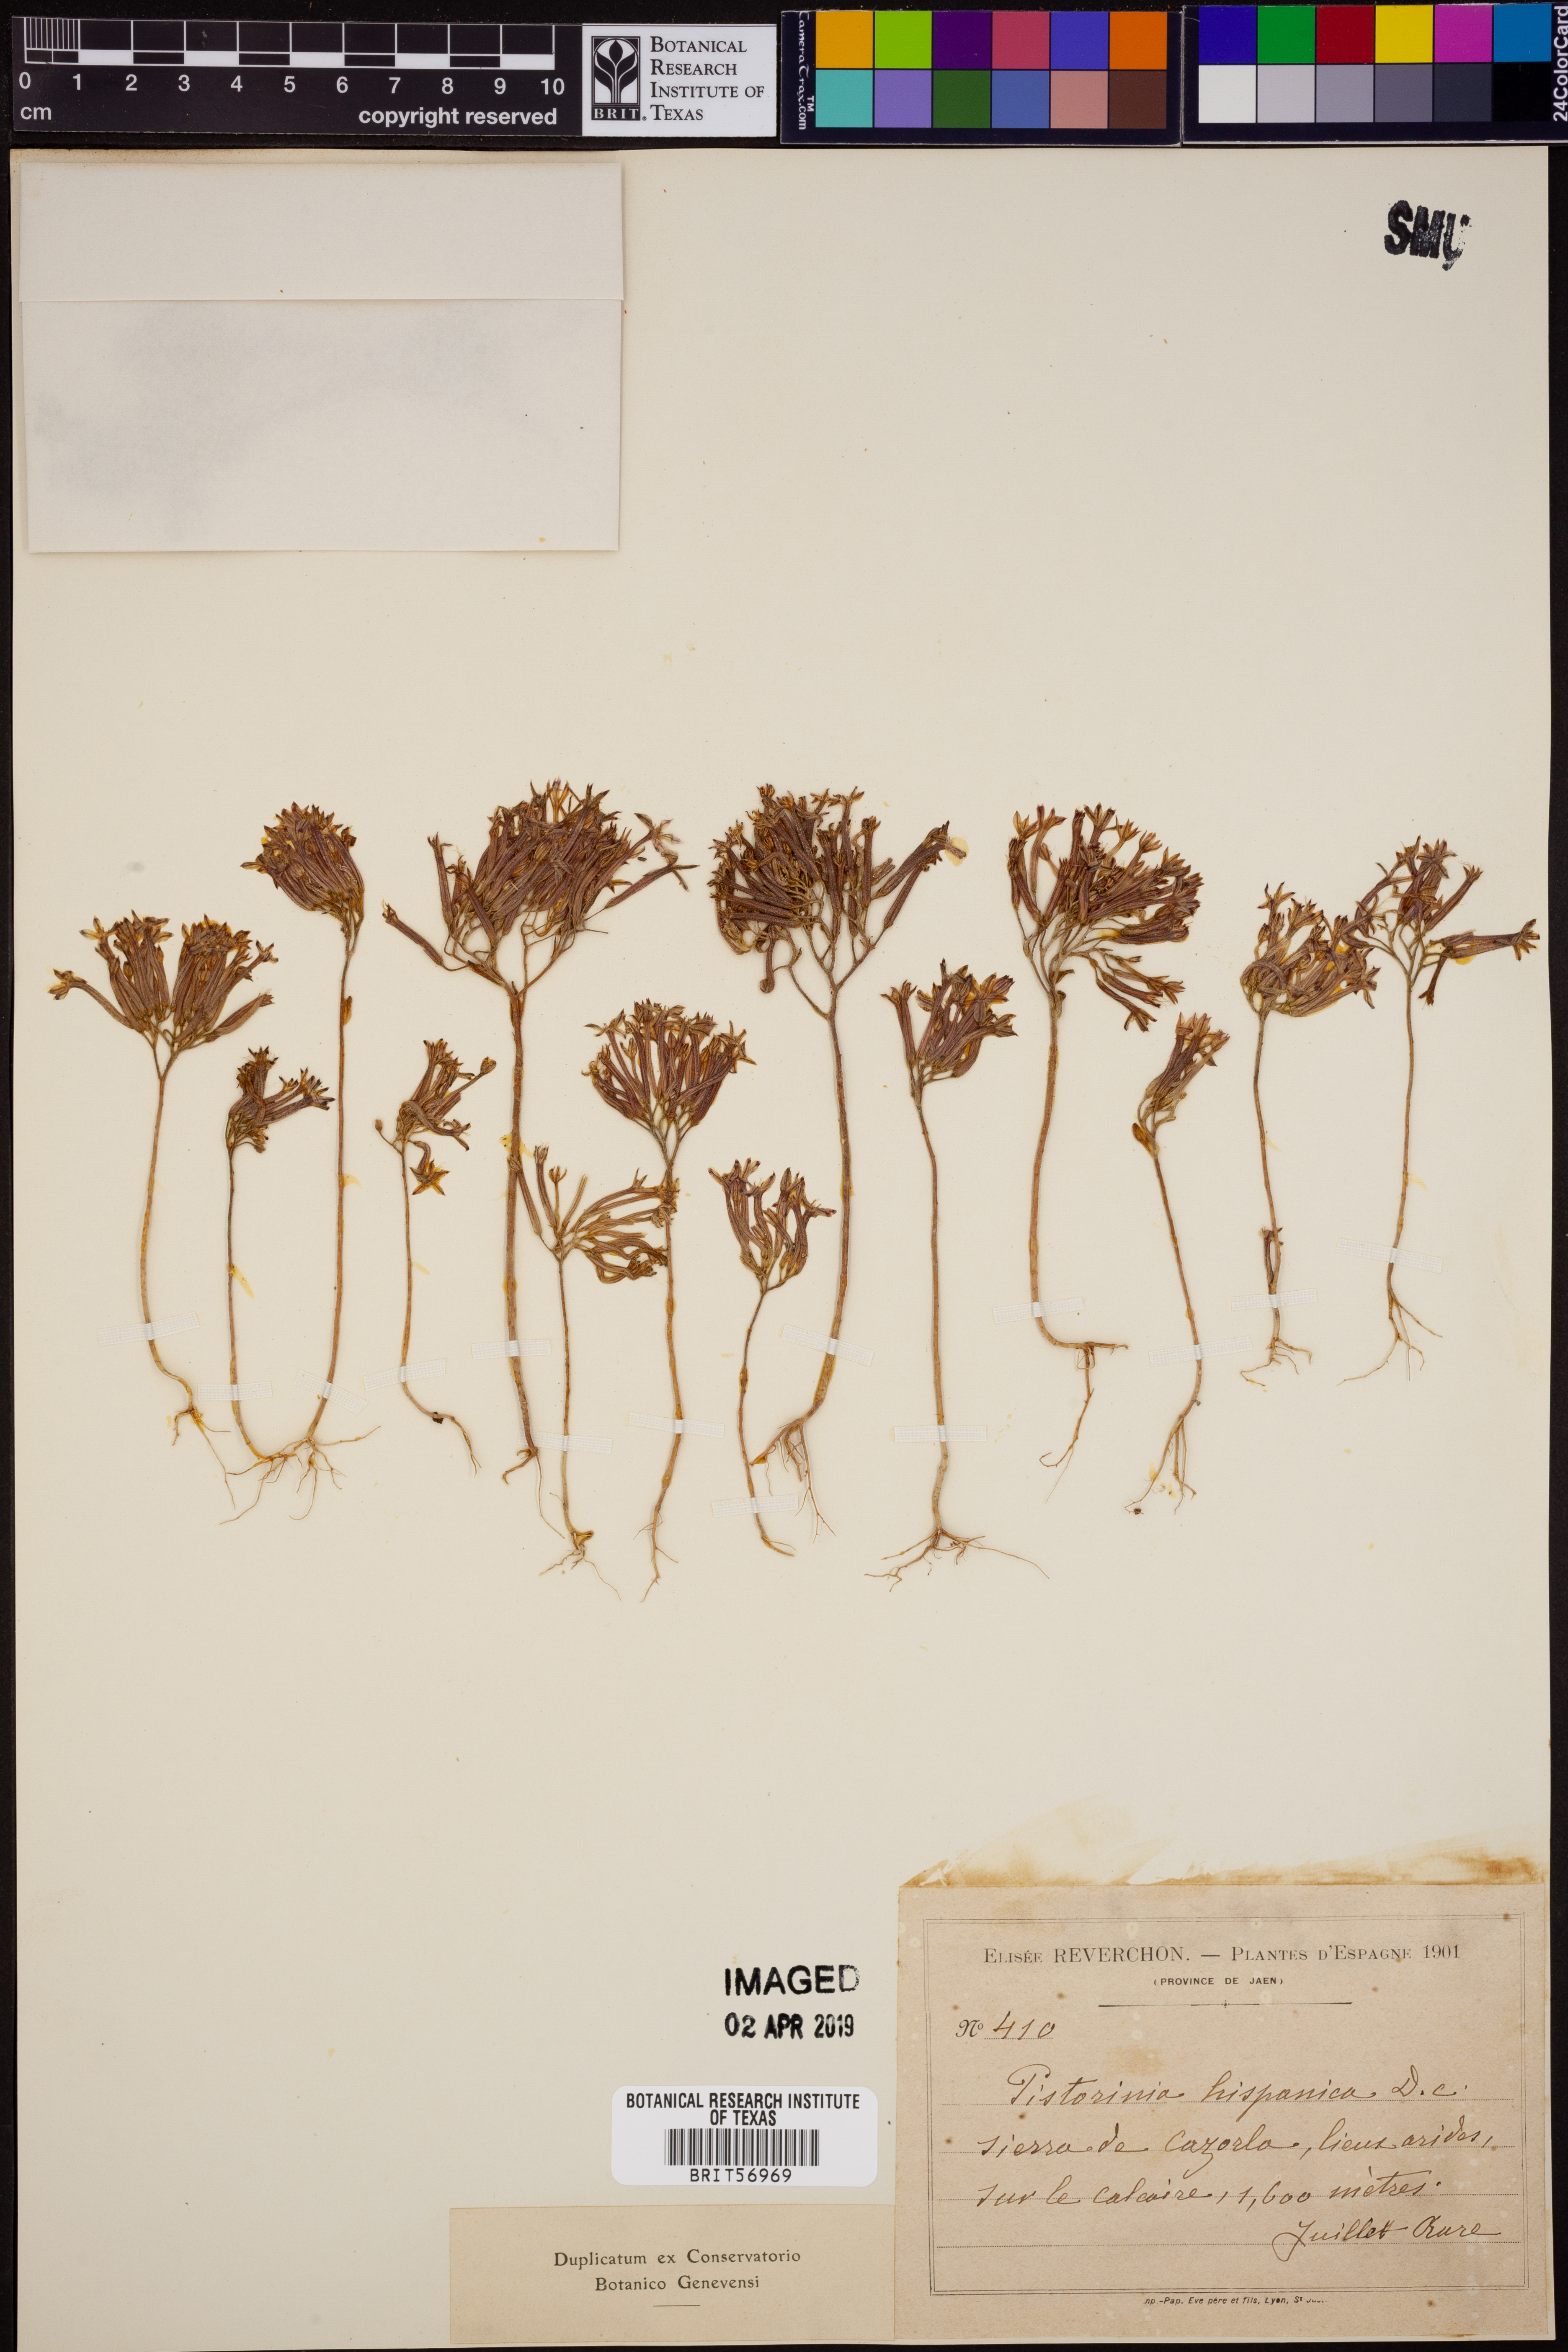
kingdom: Plantae
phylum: Tracheophyta
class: Magnoliopsida
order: Saxifragales
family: Crassulaceae
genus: Pistorinia
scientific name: Pistorinia hispanica
